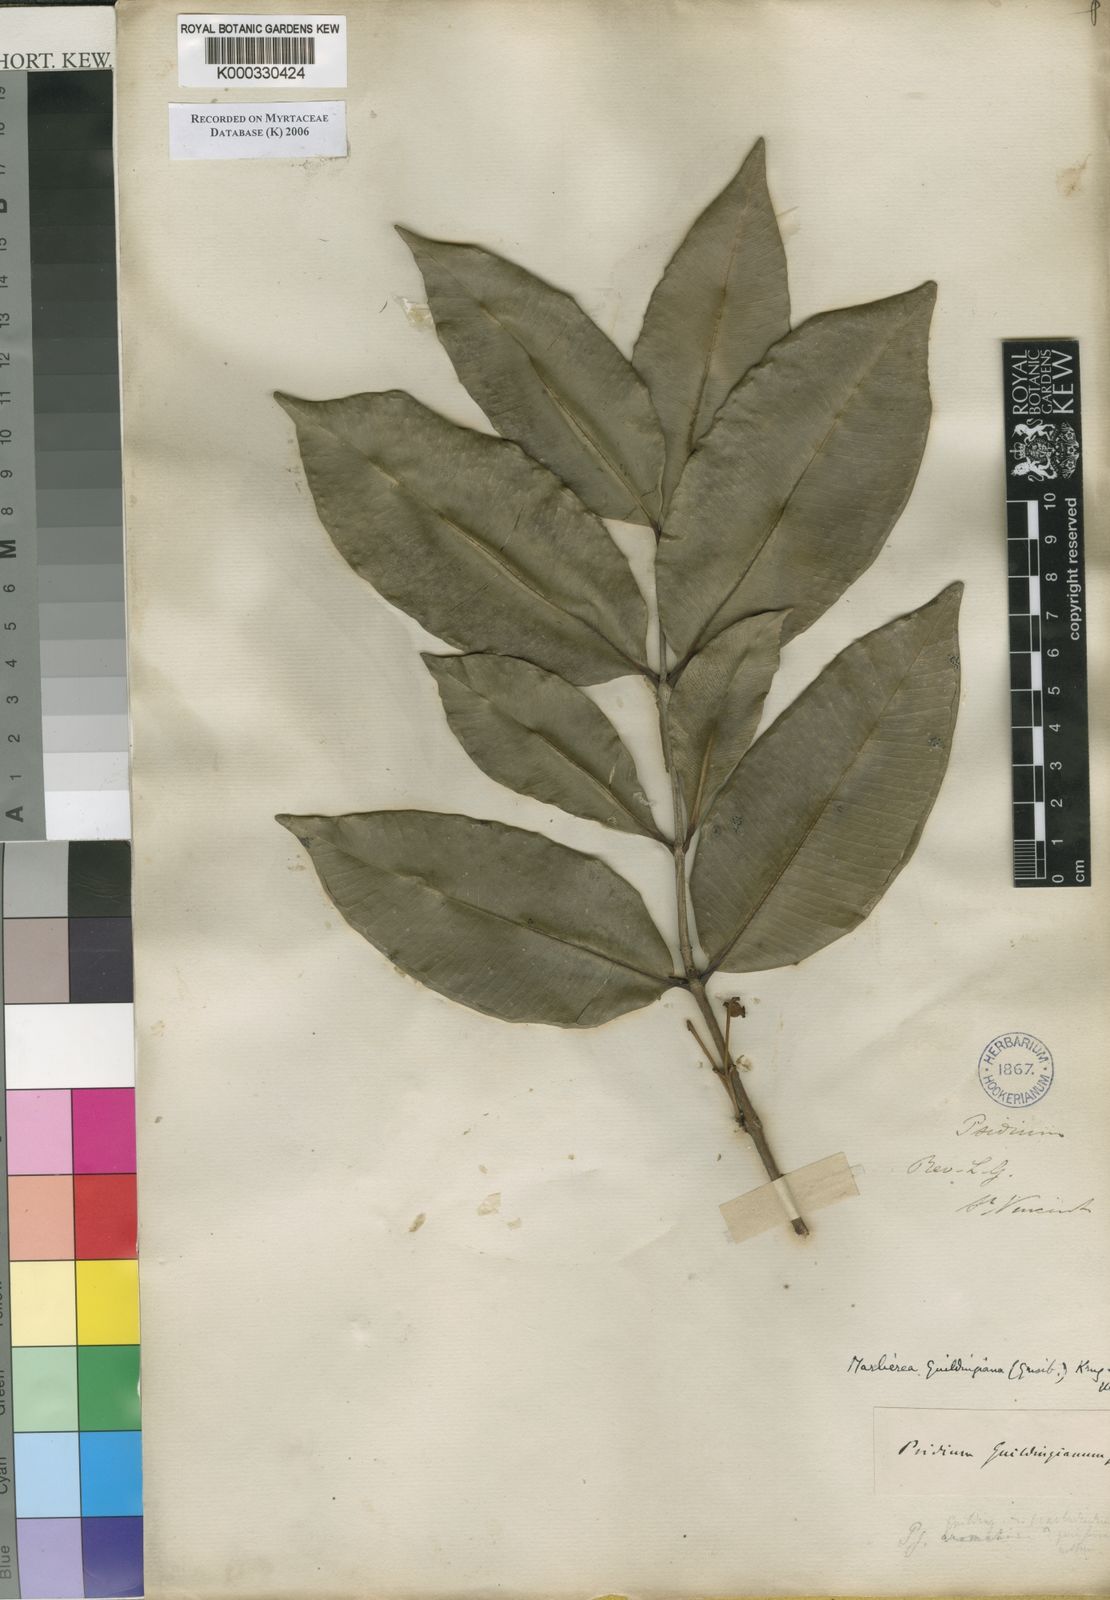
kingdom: Plantae
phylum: Tracheophyta
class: Magnoliopsida
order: Myrtales
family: Myrtaceae
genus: Myrcia
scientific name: Myrcia guildingiana
